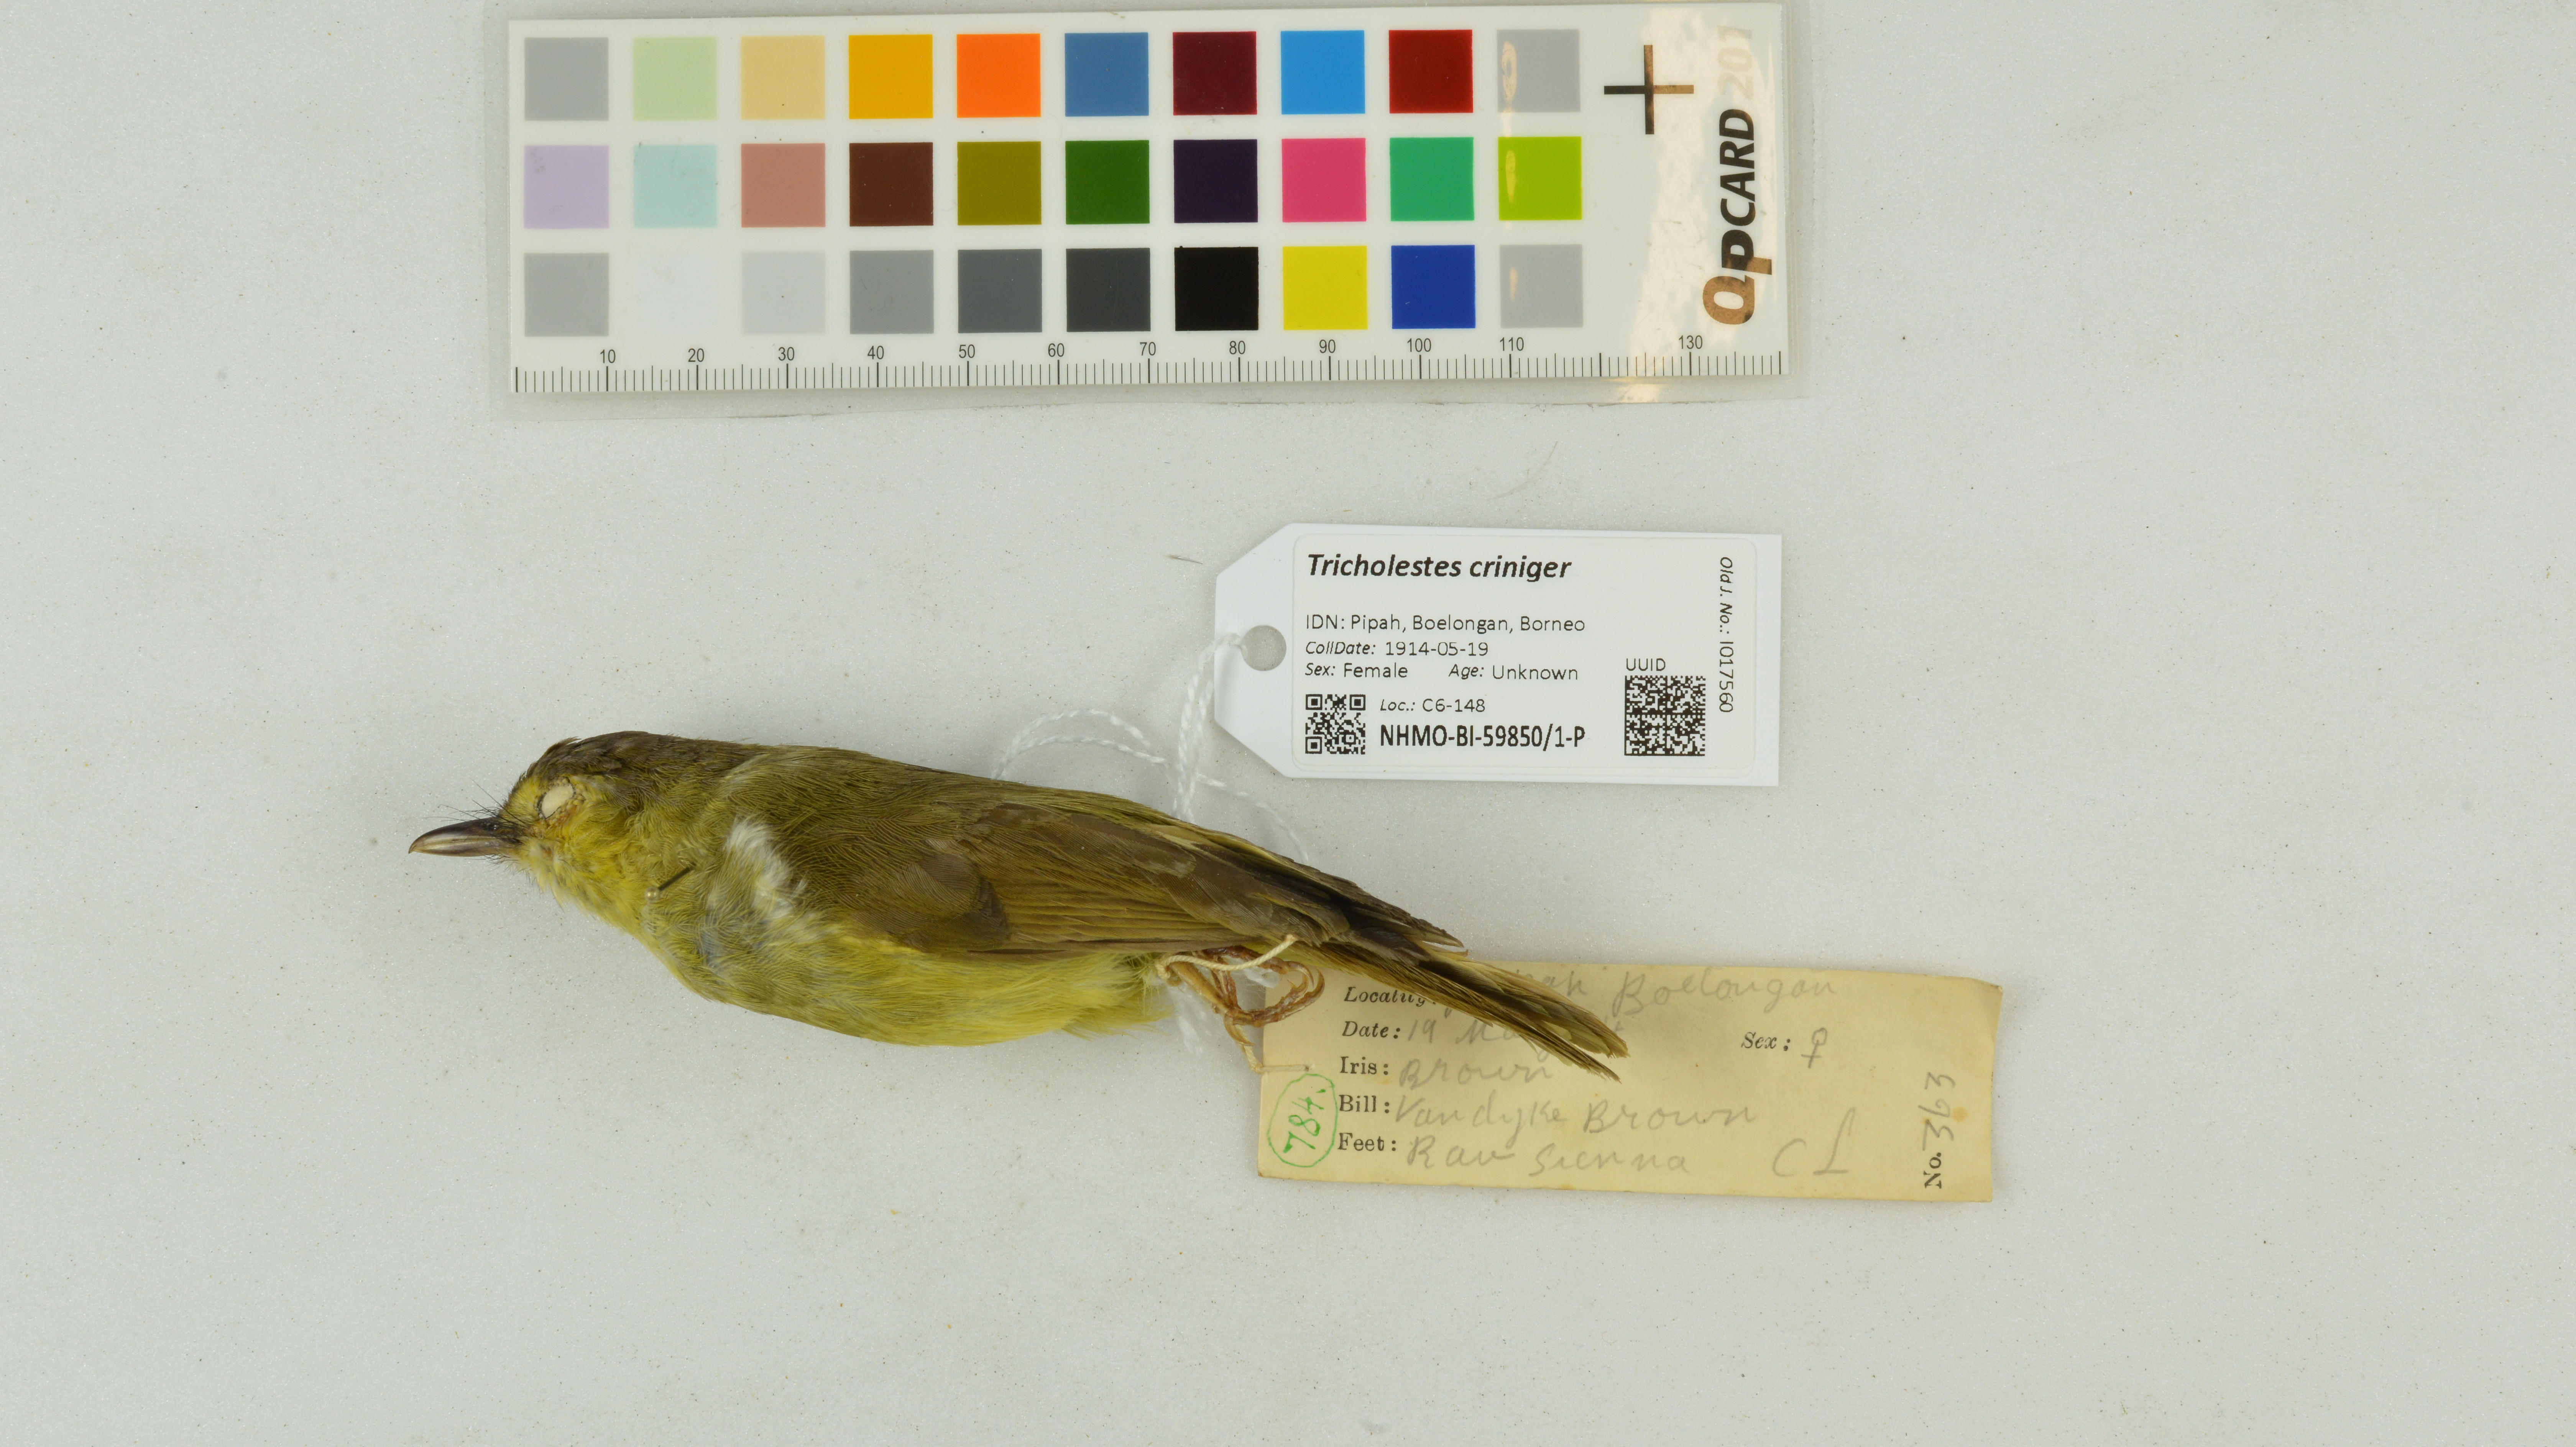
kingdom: Animalia
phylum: Chordata
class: Aves
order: Passeriformes
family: Pycnonotidae
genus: Tricholestes
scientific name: Tricholestes criniger
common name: Hairy-backed bulbul
